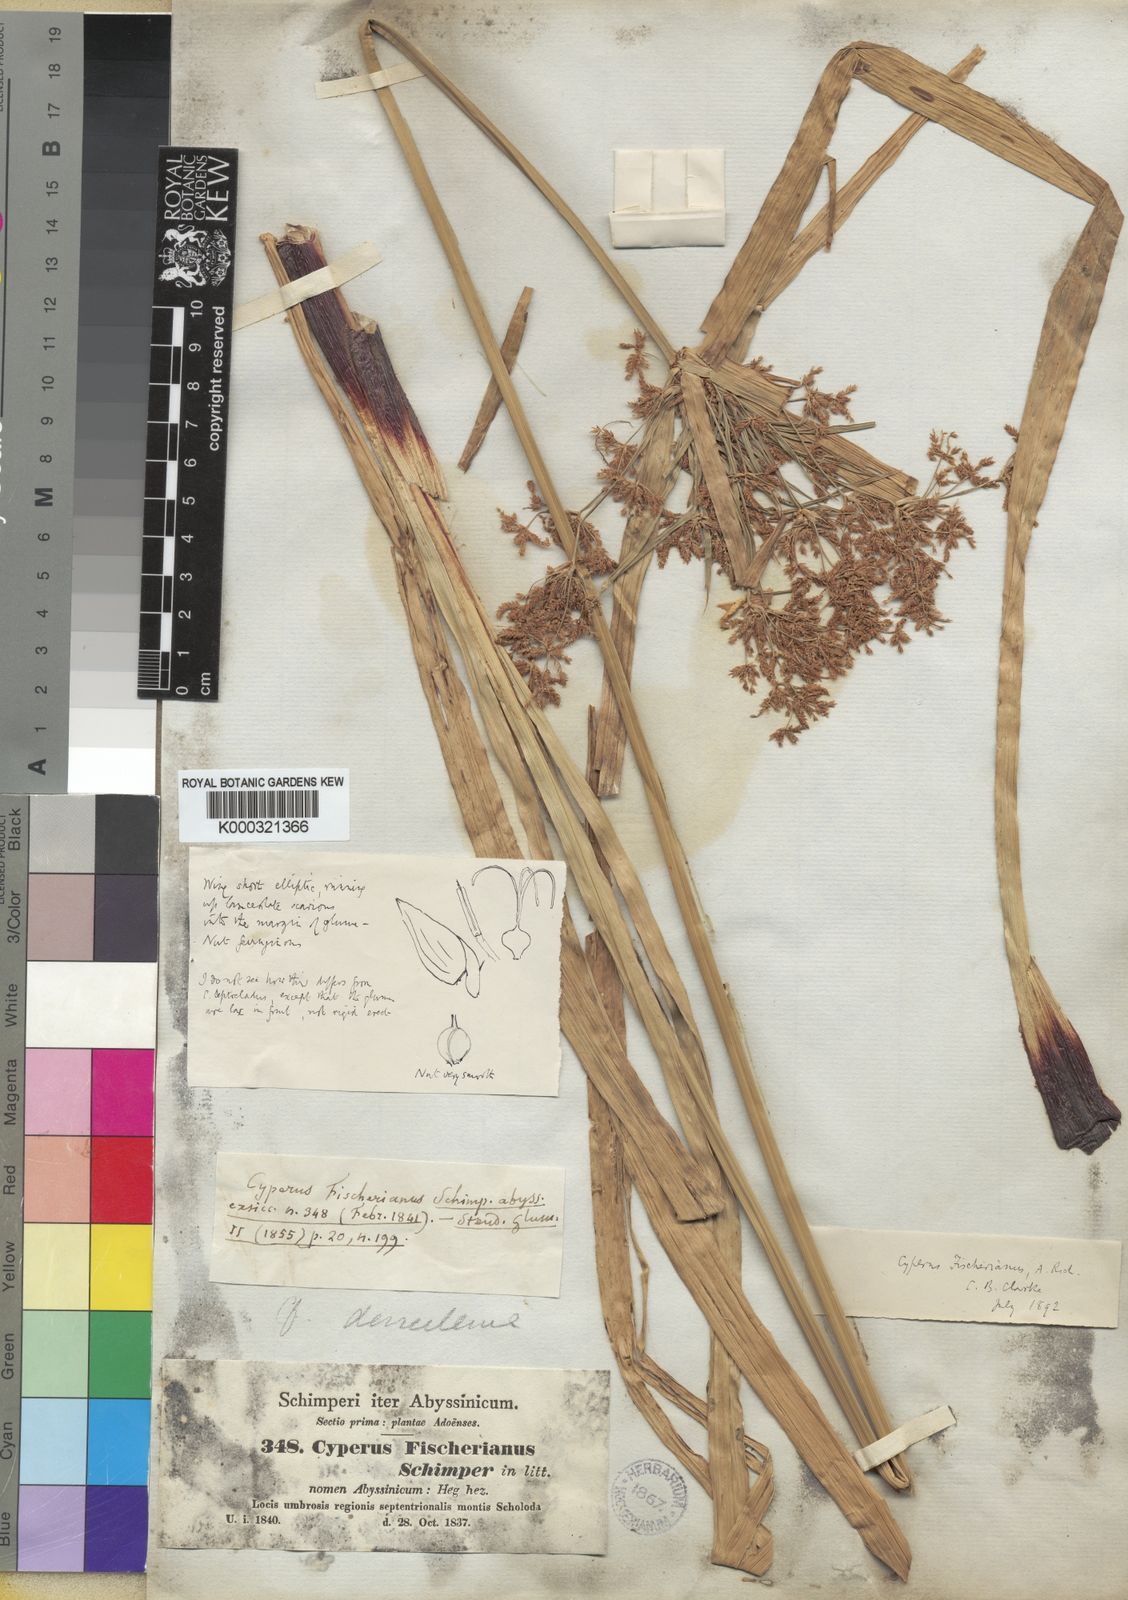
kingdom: Plantae
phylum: Tracheophyta
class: Liliopsida
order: Poales
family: Cyperaceae
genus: Cyperus
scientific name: Cyperus
